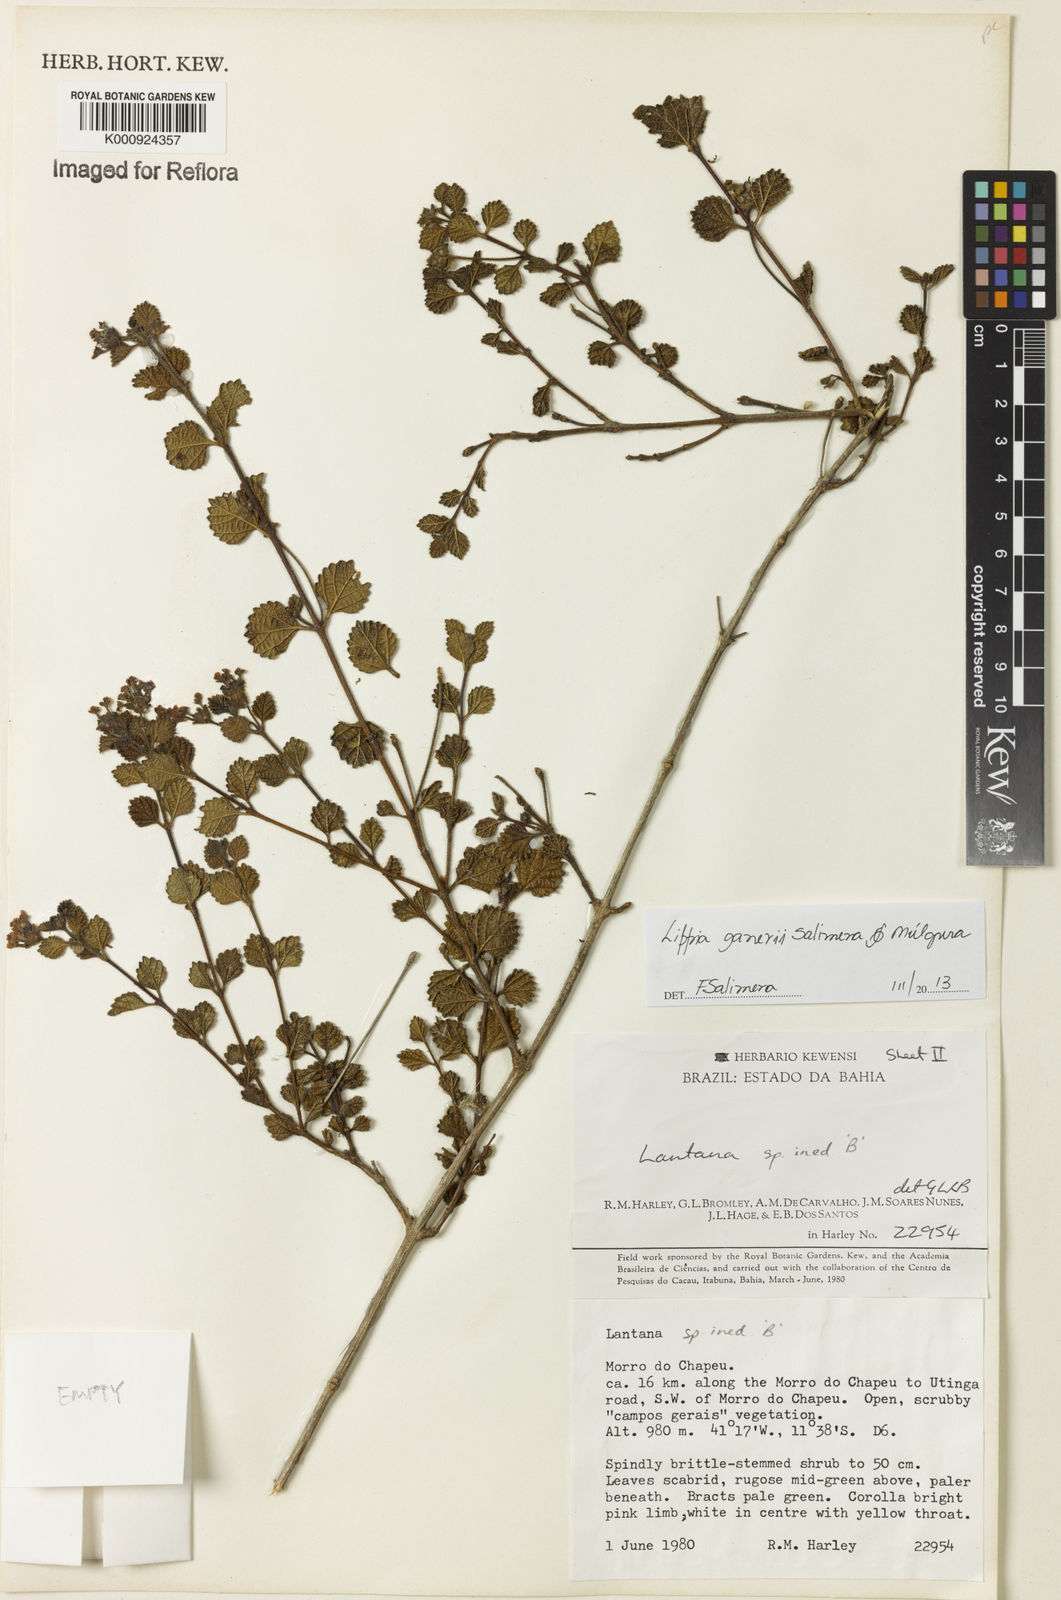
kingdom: Plantae
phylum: Tracheophyta
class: Magnoliopsida
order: Lamiales
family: Verbenaceae
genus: Lippia
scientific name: Lippia
